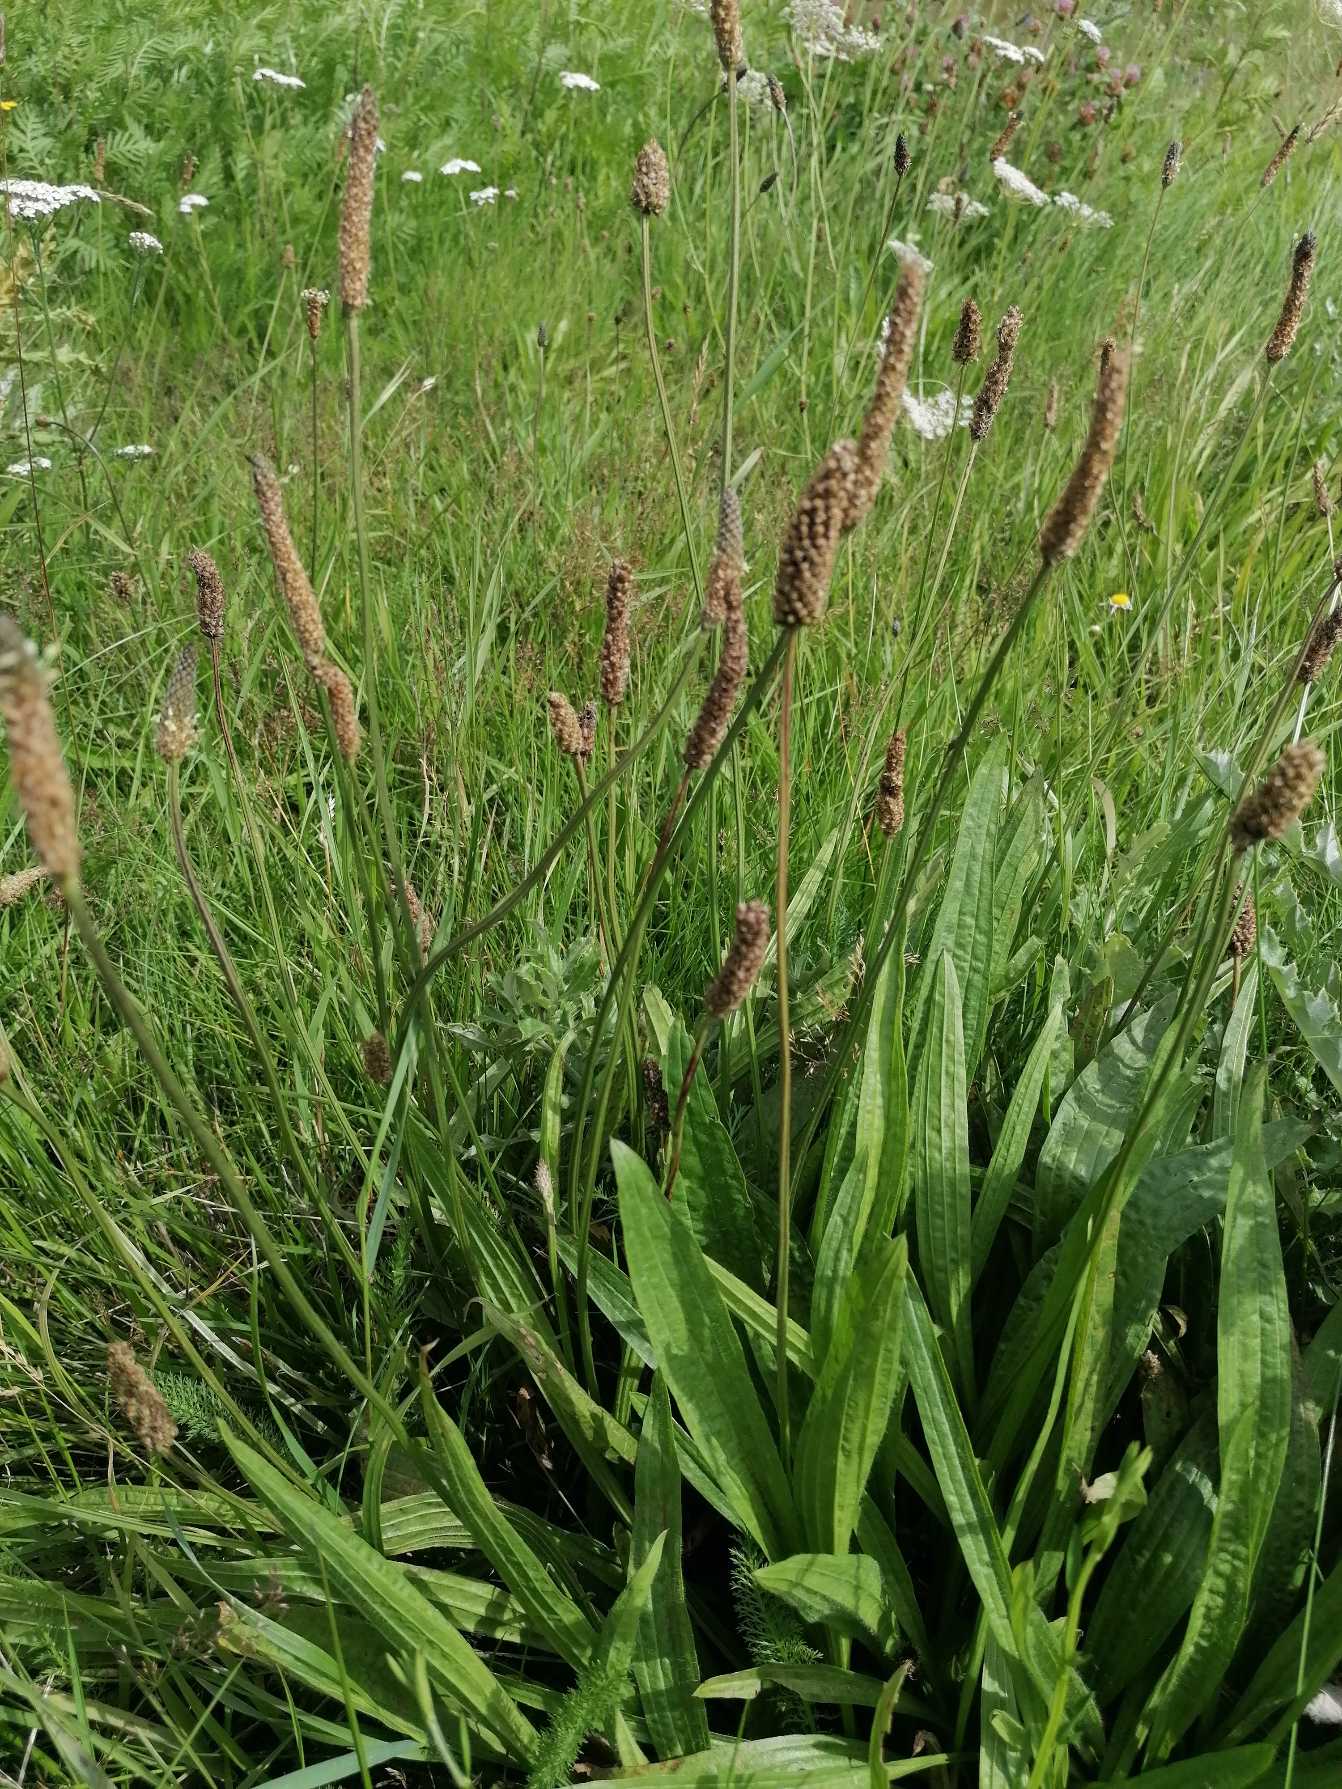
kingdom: Plantae
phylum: Tracheophyta
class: Magnoliopsida
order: Lamiales
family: Plantaginaceae
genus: Plantago
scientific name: Plantago lanceolata
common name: Lancet-vejbred
